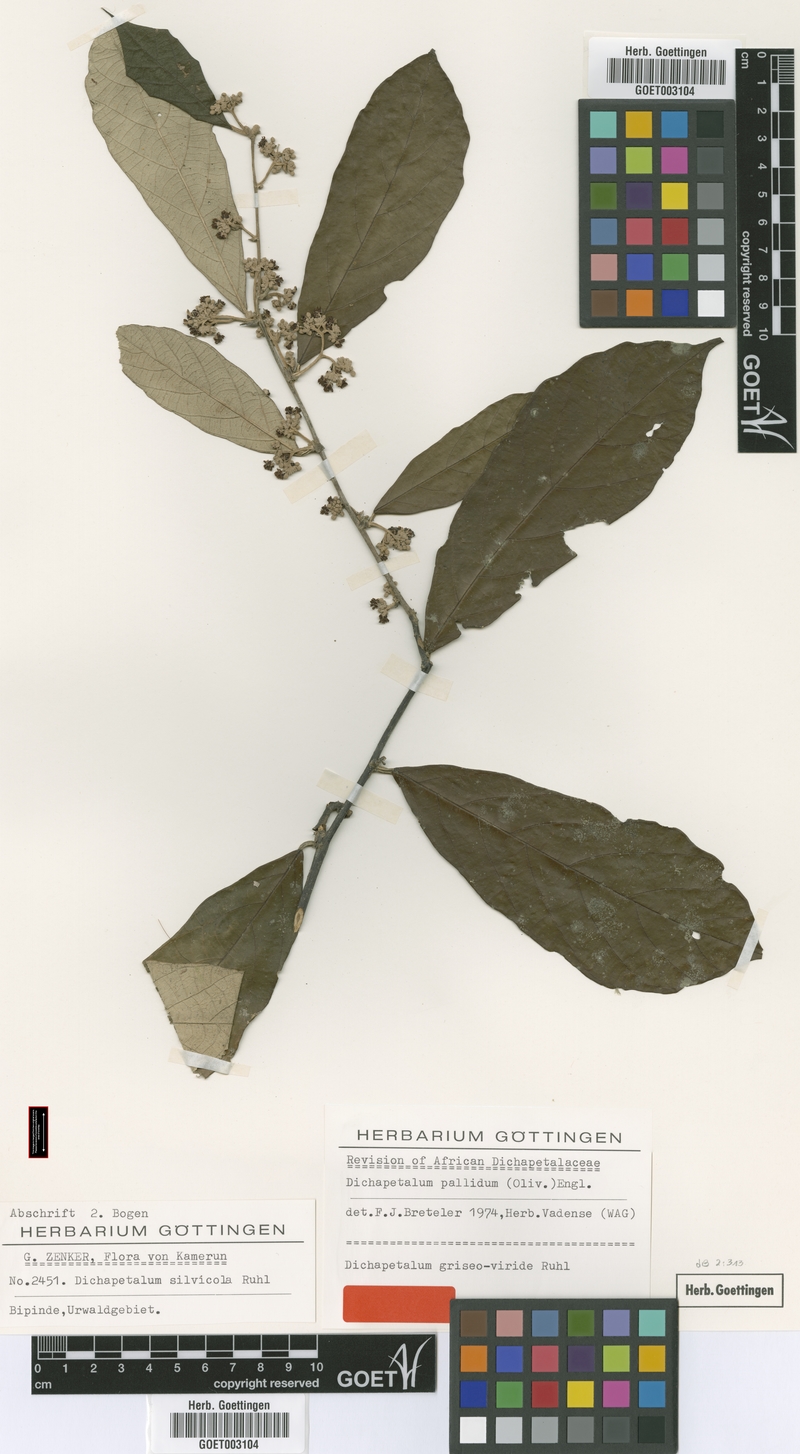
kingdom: Plantae
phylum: Tracheophyta
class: Magnoliopsida
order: Malpighiales
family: Dichapetalaceae
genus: Dichapetalum
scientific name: Dichapetalum pallidum
